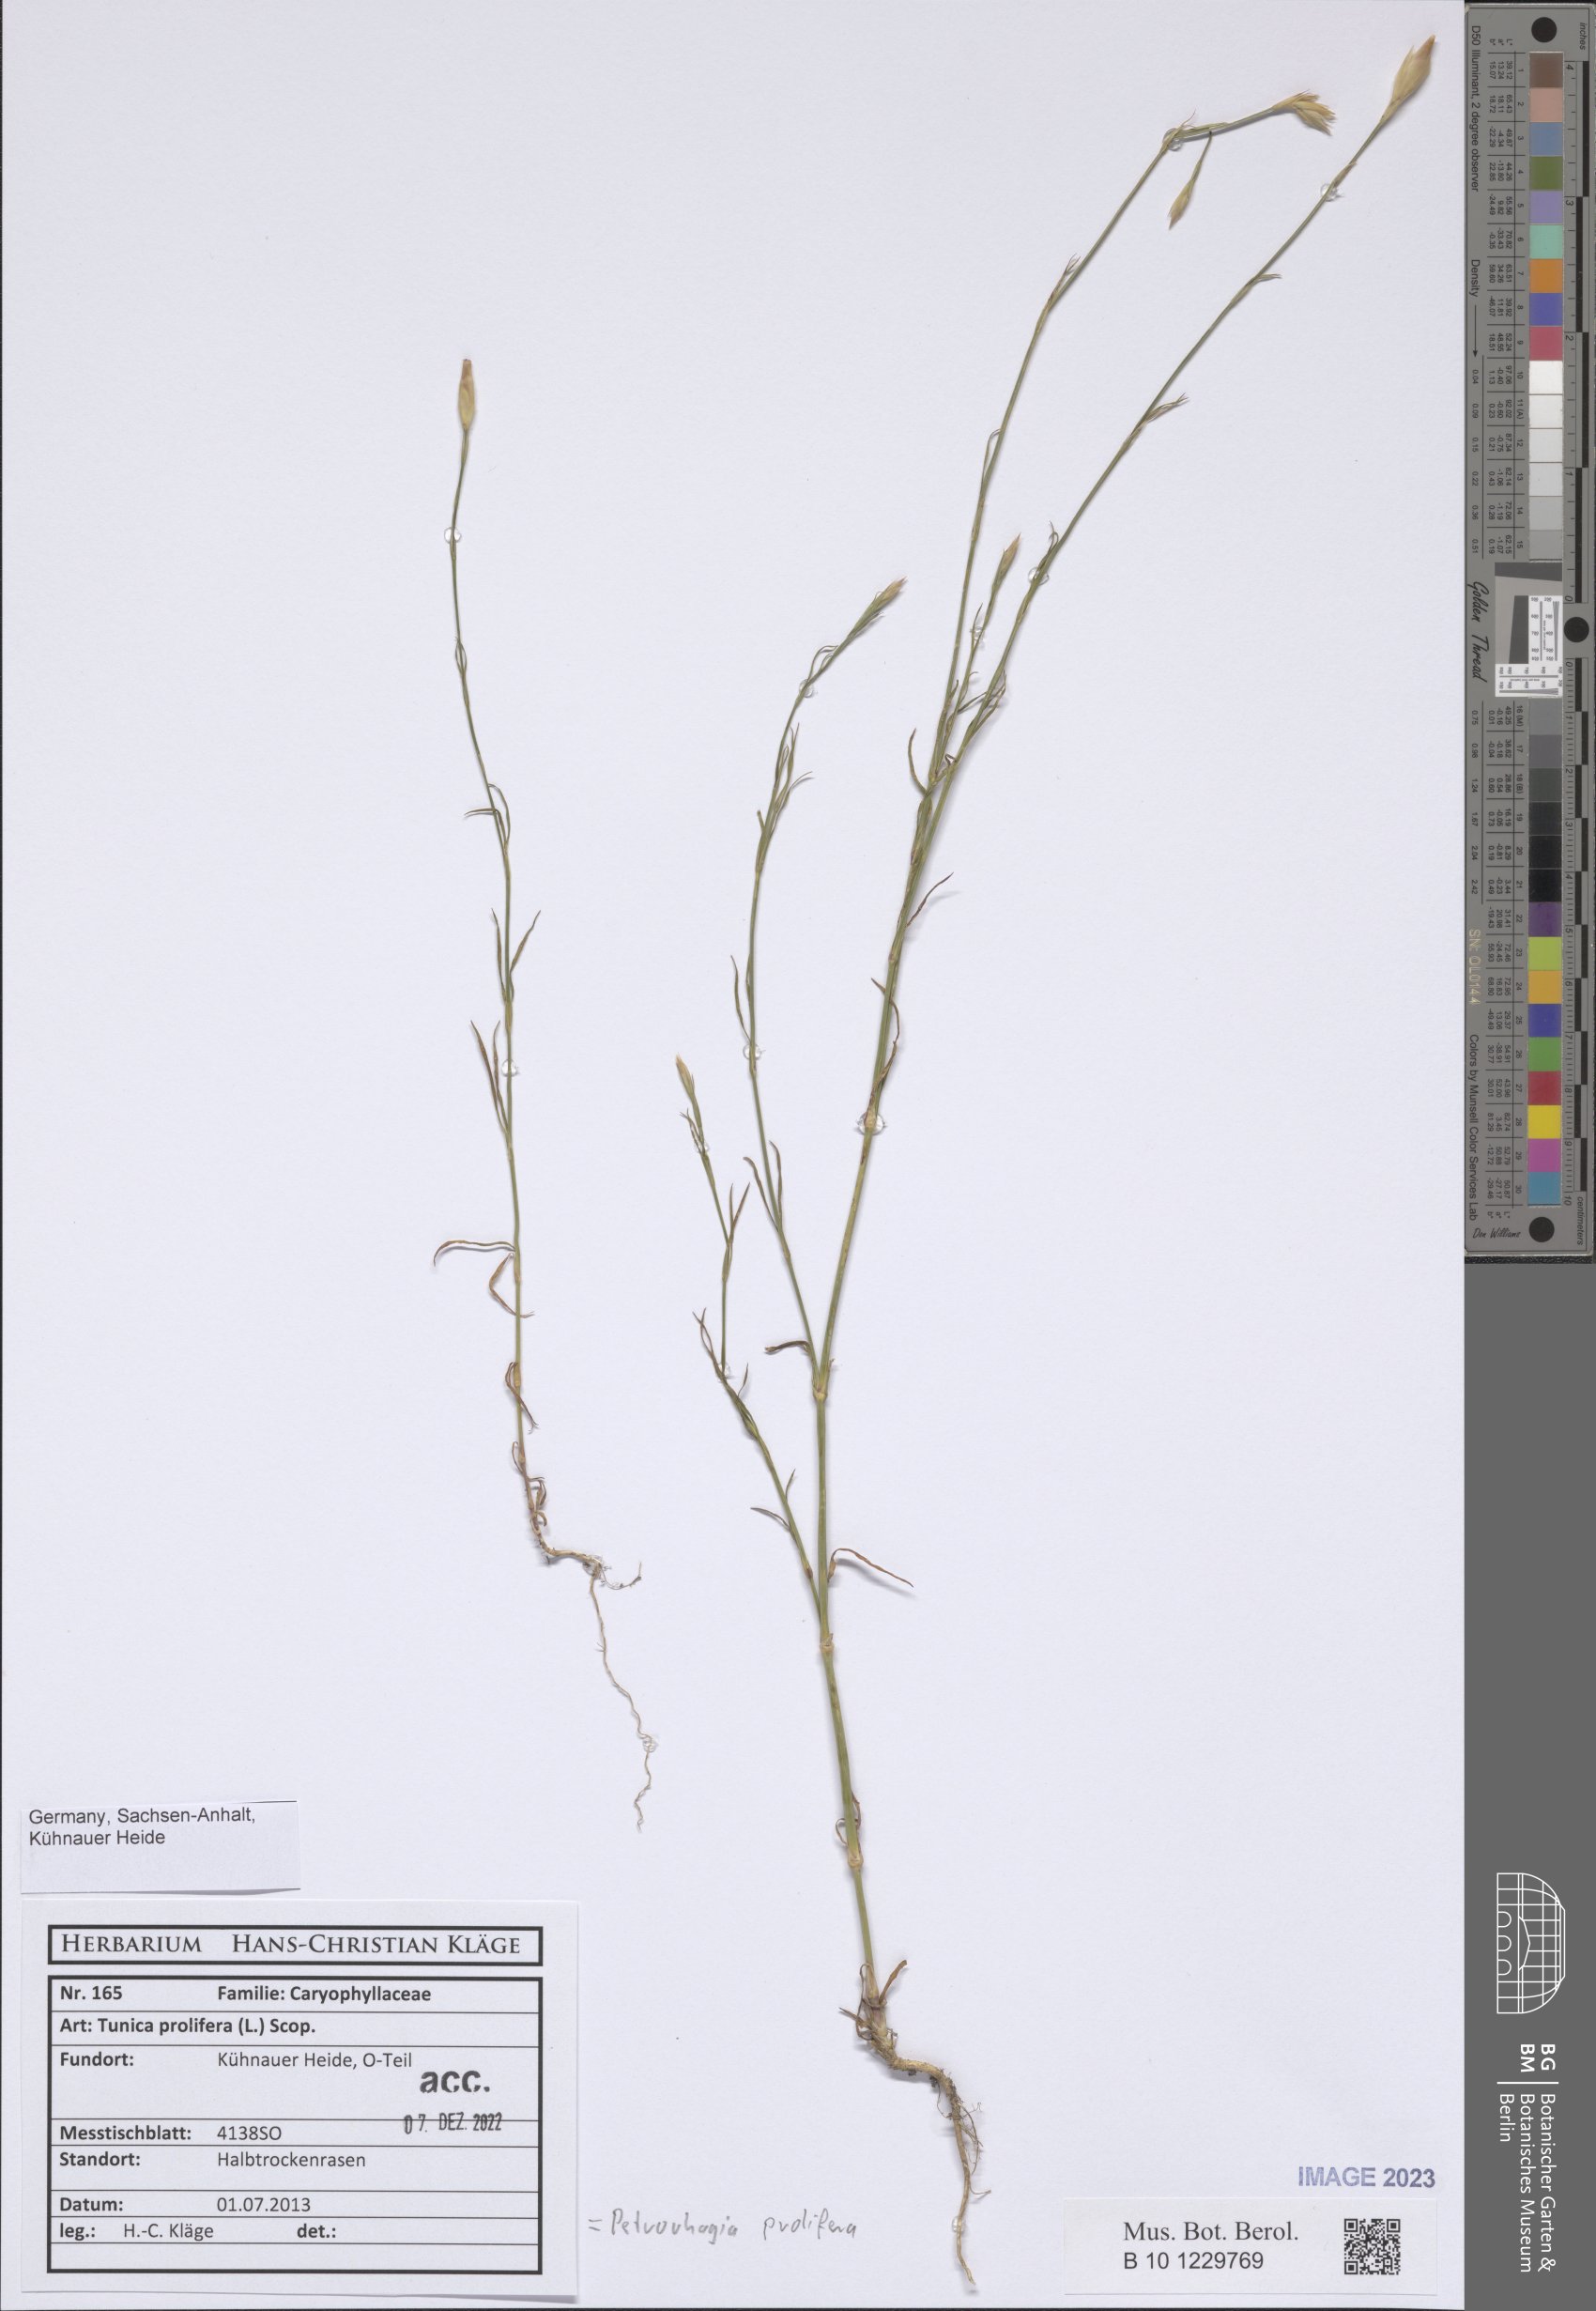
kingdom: Plantae
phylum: Tracheophyta
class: Magnoliopsida
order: Caryophyllales
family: Caryophyllaceae
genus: Petrorhagia
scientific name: Petrorhagia prolifera
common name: Proliferous pink
